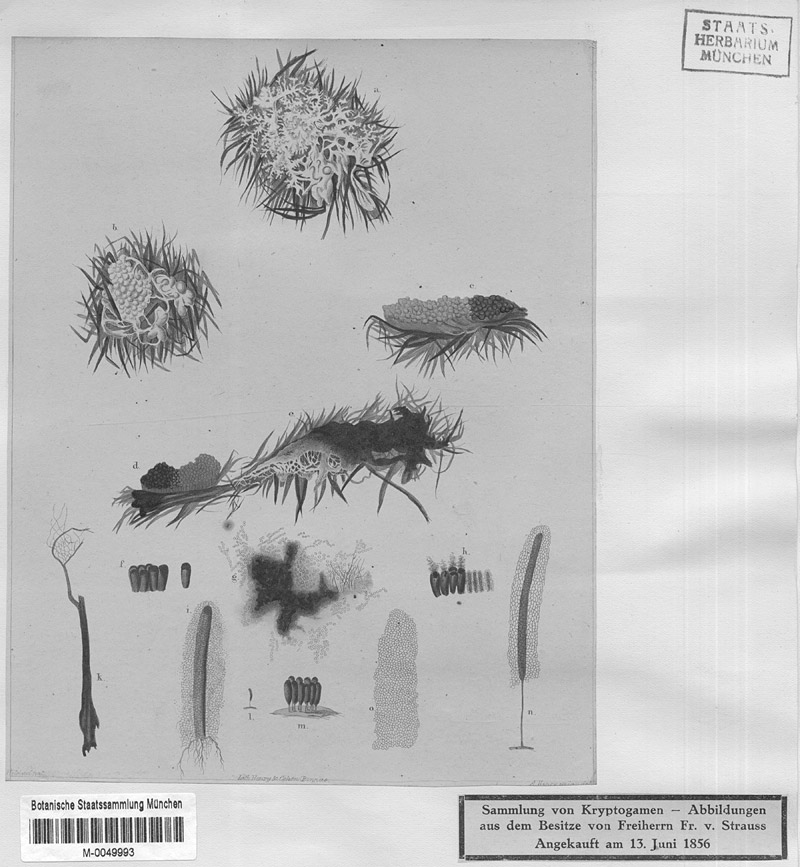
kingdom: Protozoa
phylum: Mycetozoa
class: Myxomycetes
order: Stemonitidales
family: Stemonitidaceae
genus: Stemonitis
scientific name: Stemonitis axifera
